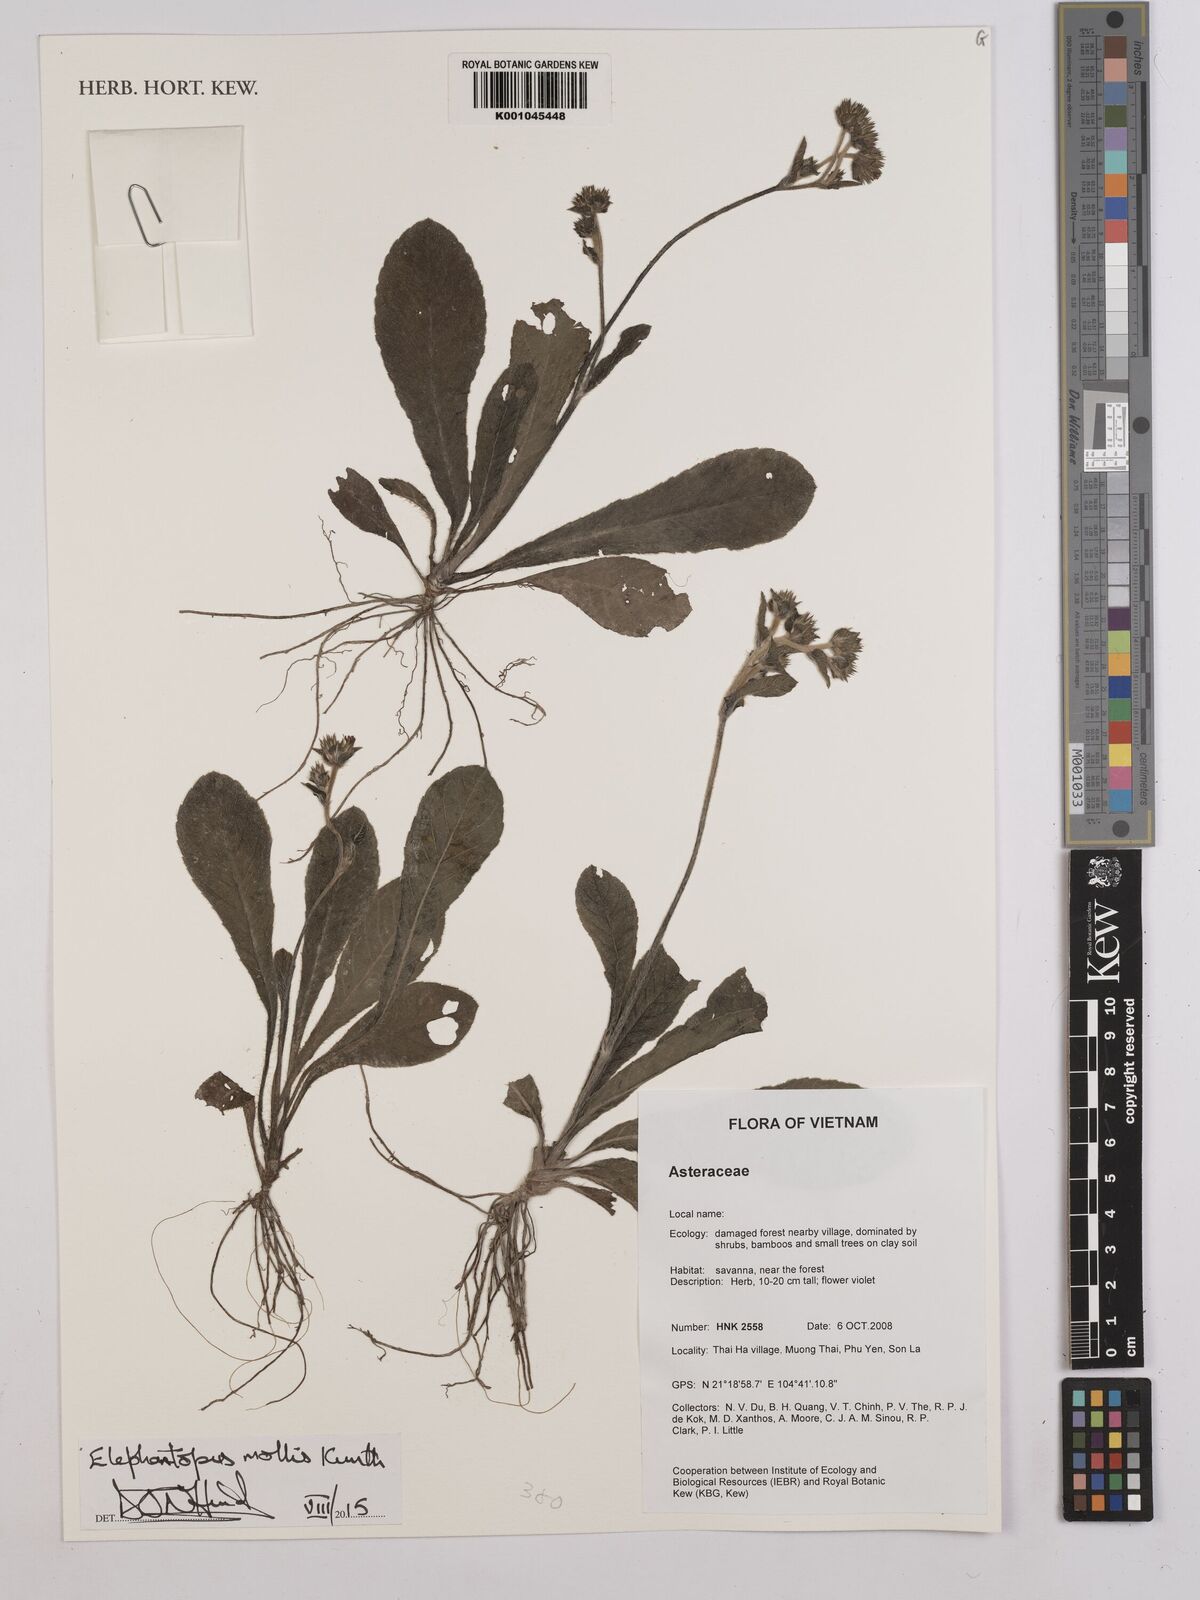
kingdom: Plantae
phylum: Tracheophyta
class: Magnoliopsida
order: Asterales
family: Asteraceae
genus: Elephantopus
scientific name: Elephantopus mollis
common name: Soft elephantsfoot
